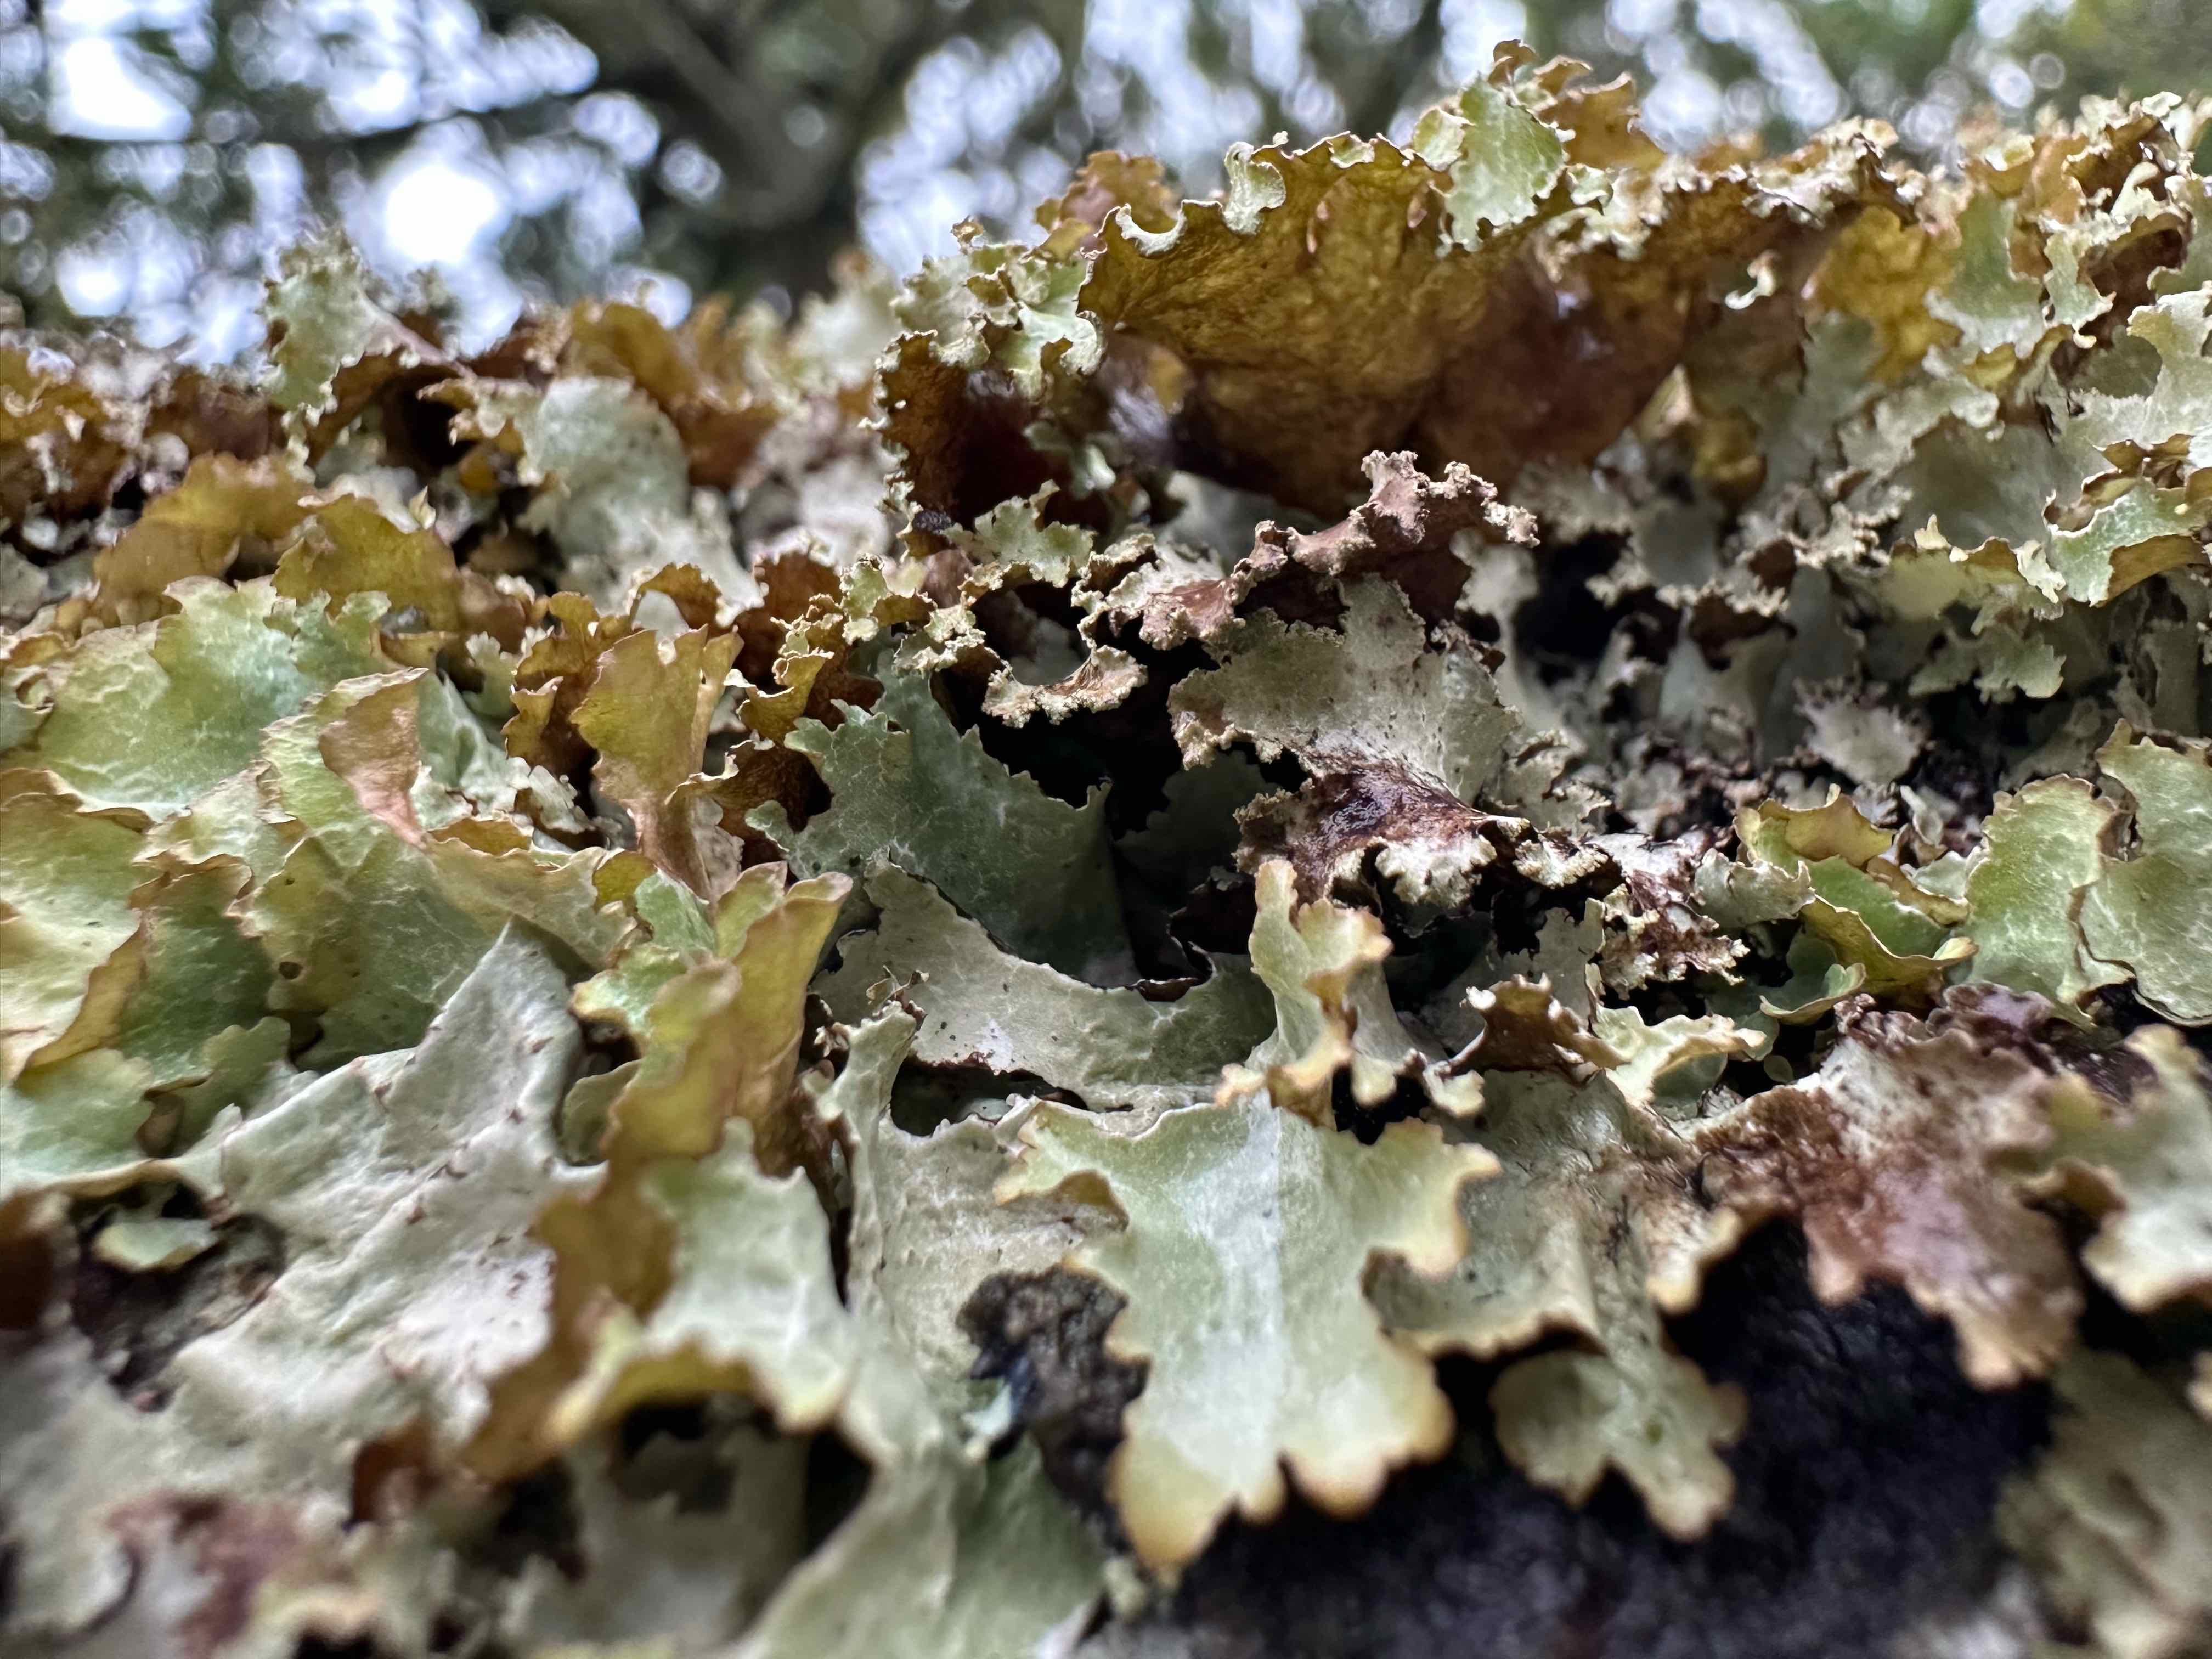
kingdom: Fungi
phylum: Ascomycota
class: Lecanoromycetes
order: Lecanorales
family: Parmeliaceae
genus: Platismatia
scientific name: Platismatia glauca
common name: blågrå papirlav
